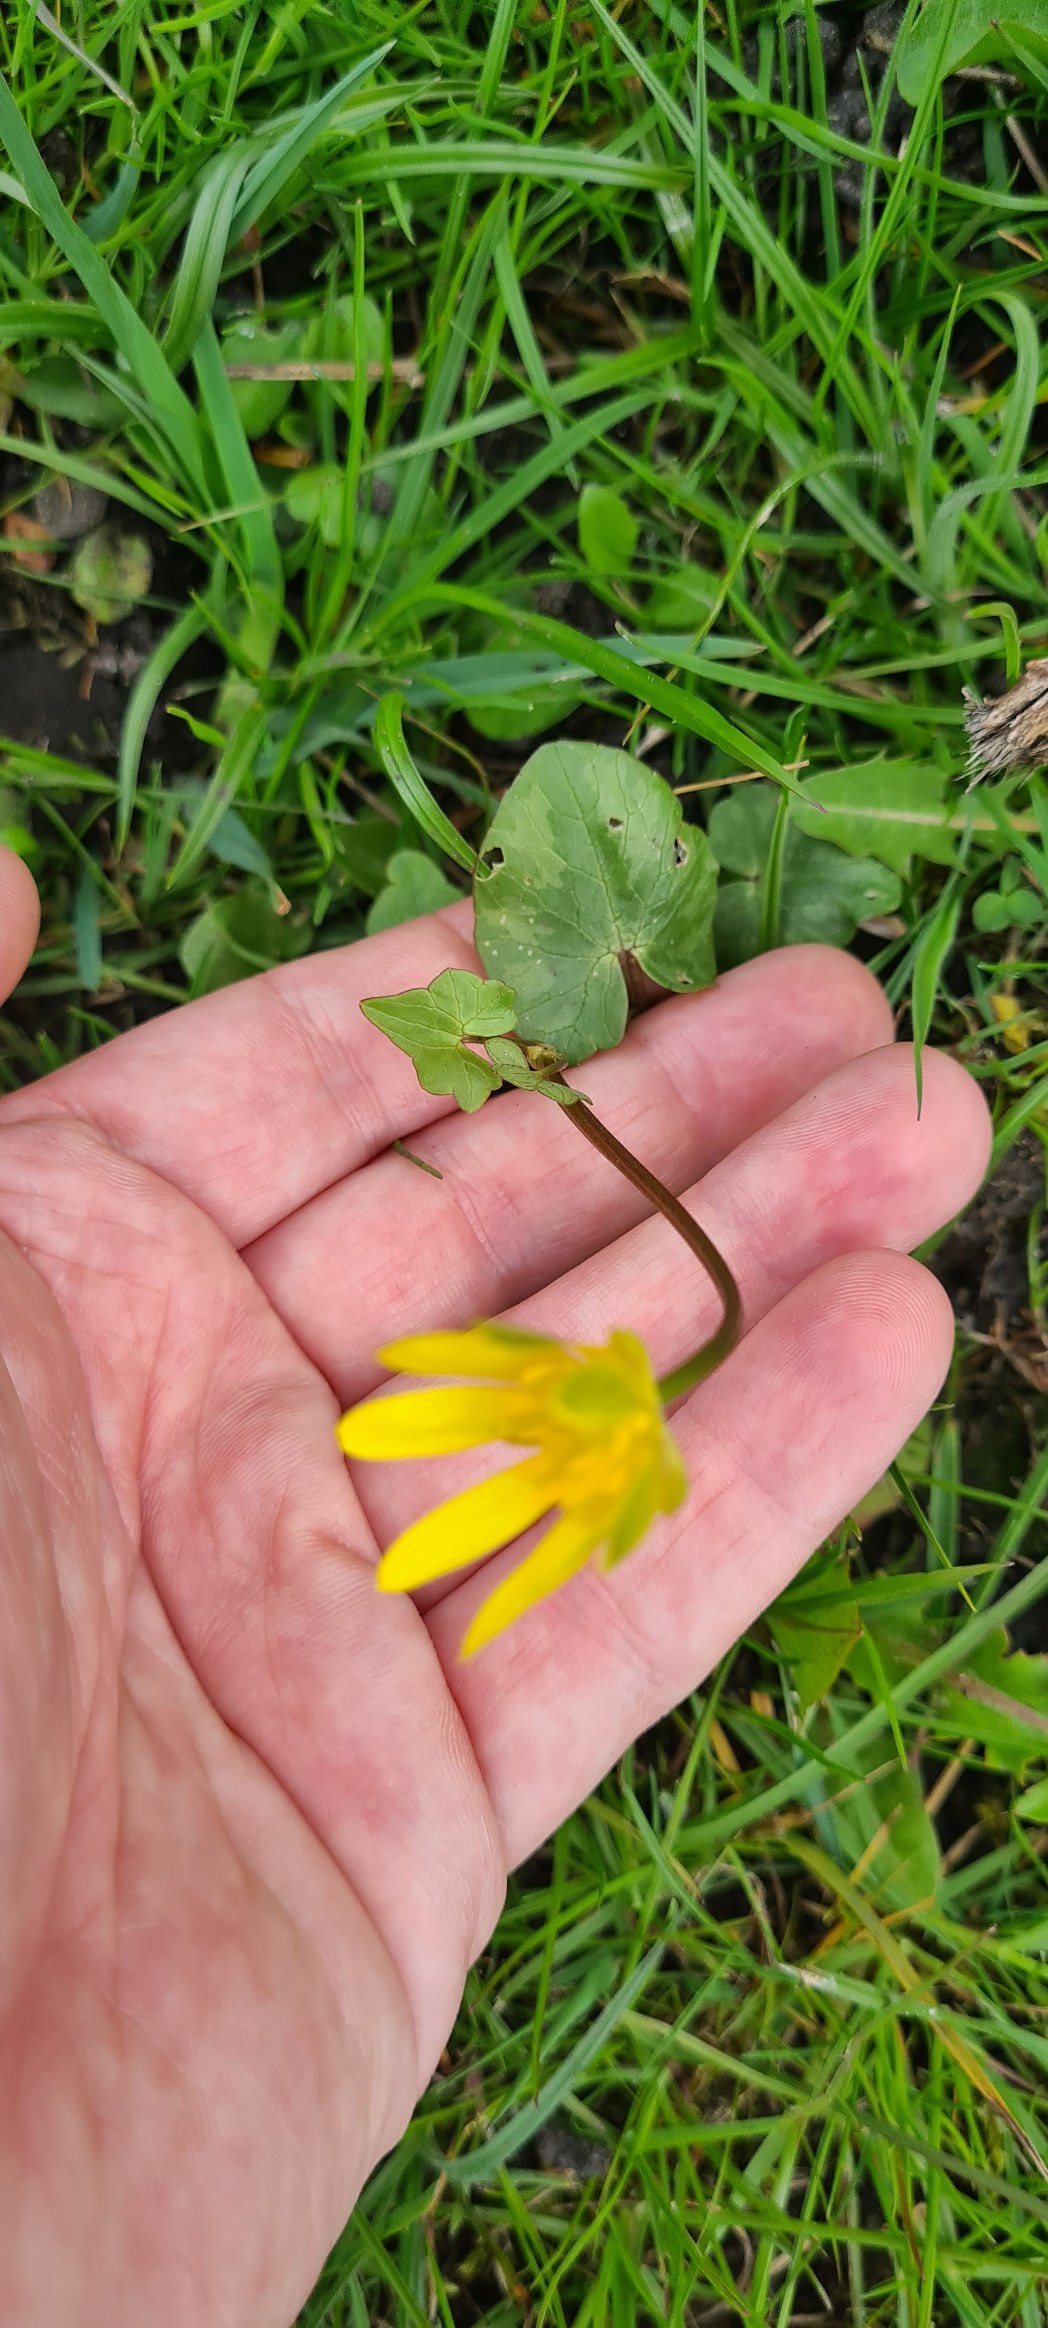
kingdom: Plantae
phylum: Tracheophyta
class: Magnoliopsida
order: Ranunculales
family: Ranunculaceae
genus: Ficaria
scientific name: Ficaria verna
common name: Vorterod
